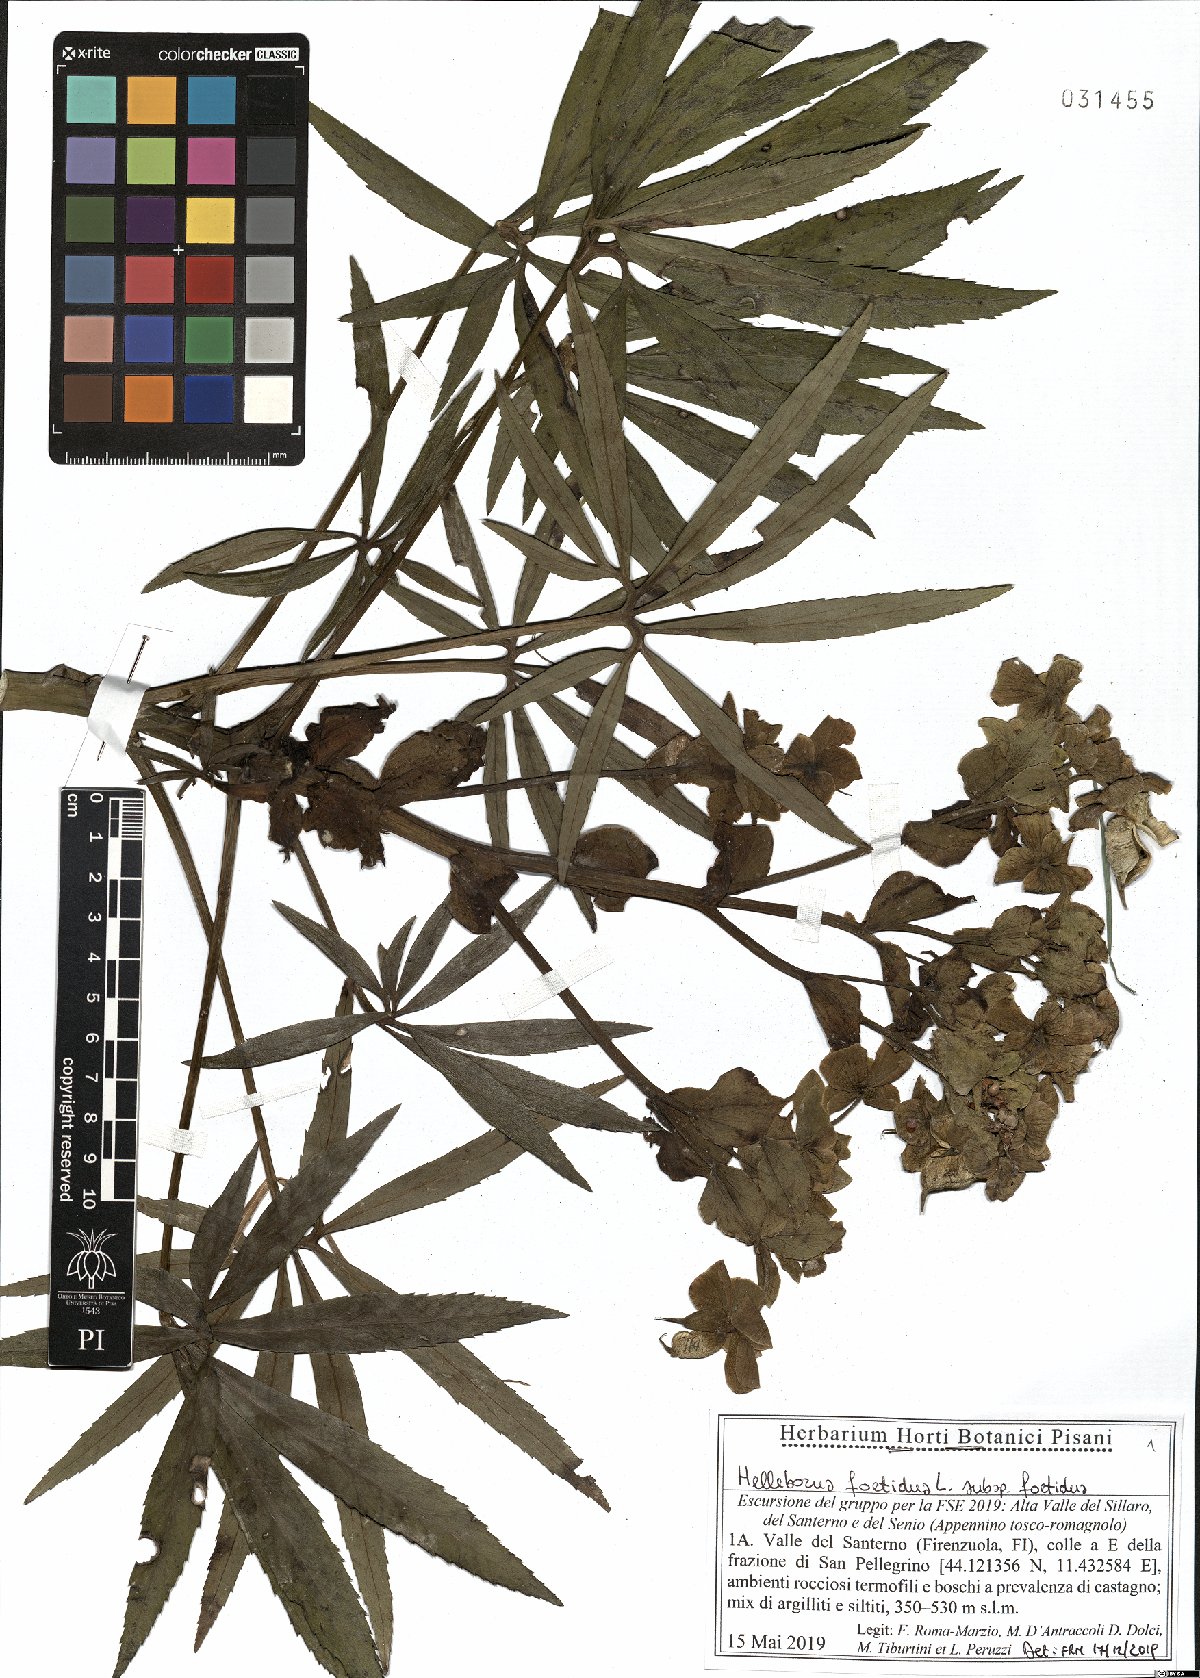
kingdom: Plantae
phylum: Tracheophyta
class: Magnoliopsida
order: Ranunculales
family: Ranunculaceae
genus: Helleborus
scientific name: Helleborus foetidus
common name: Stinking hellebore
